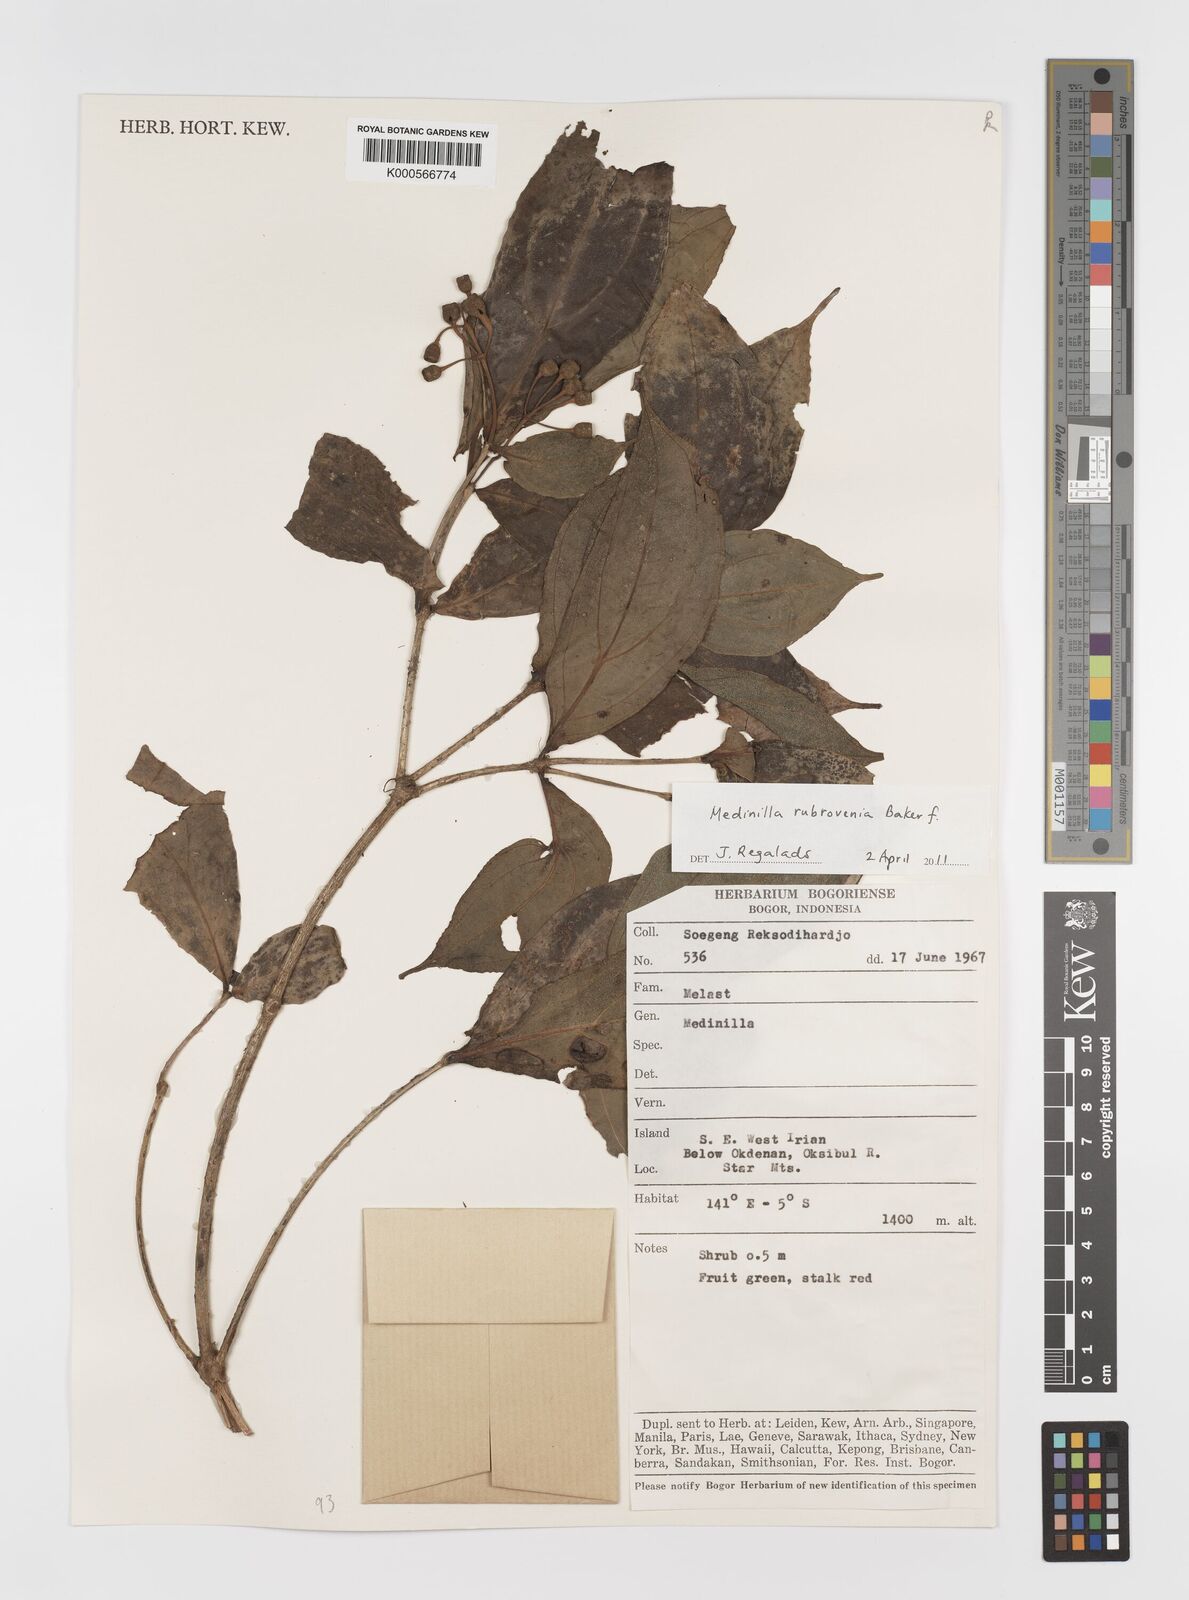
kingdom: Plantae
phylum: Tracheophyta
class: Magnoliopsida
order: Myrtales
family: Melastomataceae
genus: Medinilla
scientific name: Medinilla rubrovenia
